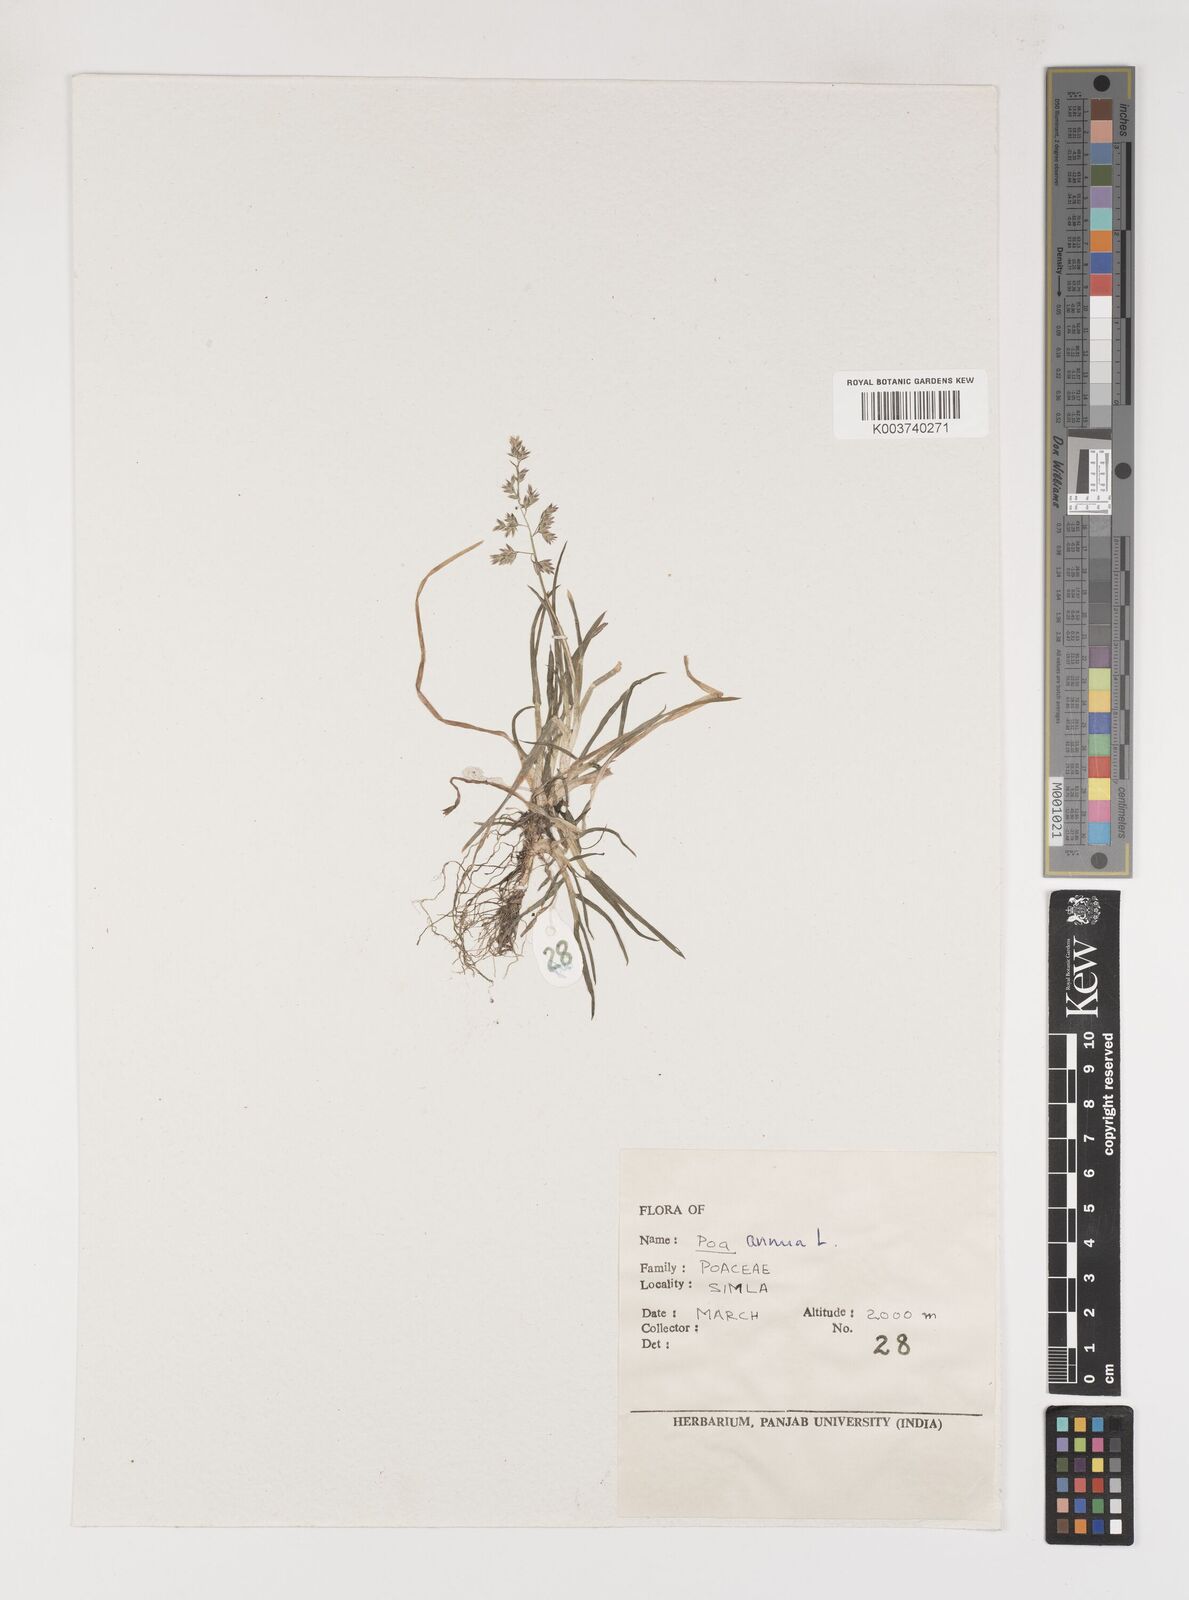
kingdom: Plantae
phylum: Tracheophyta
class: Liliopsida
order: Poales
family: Poaceae
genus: Poa
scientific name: Poa annua
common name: Annual bluegrass
